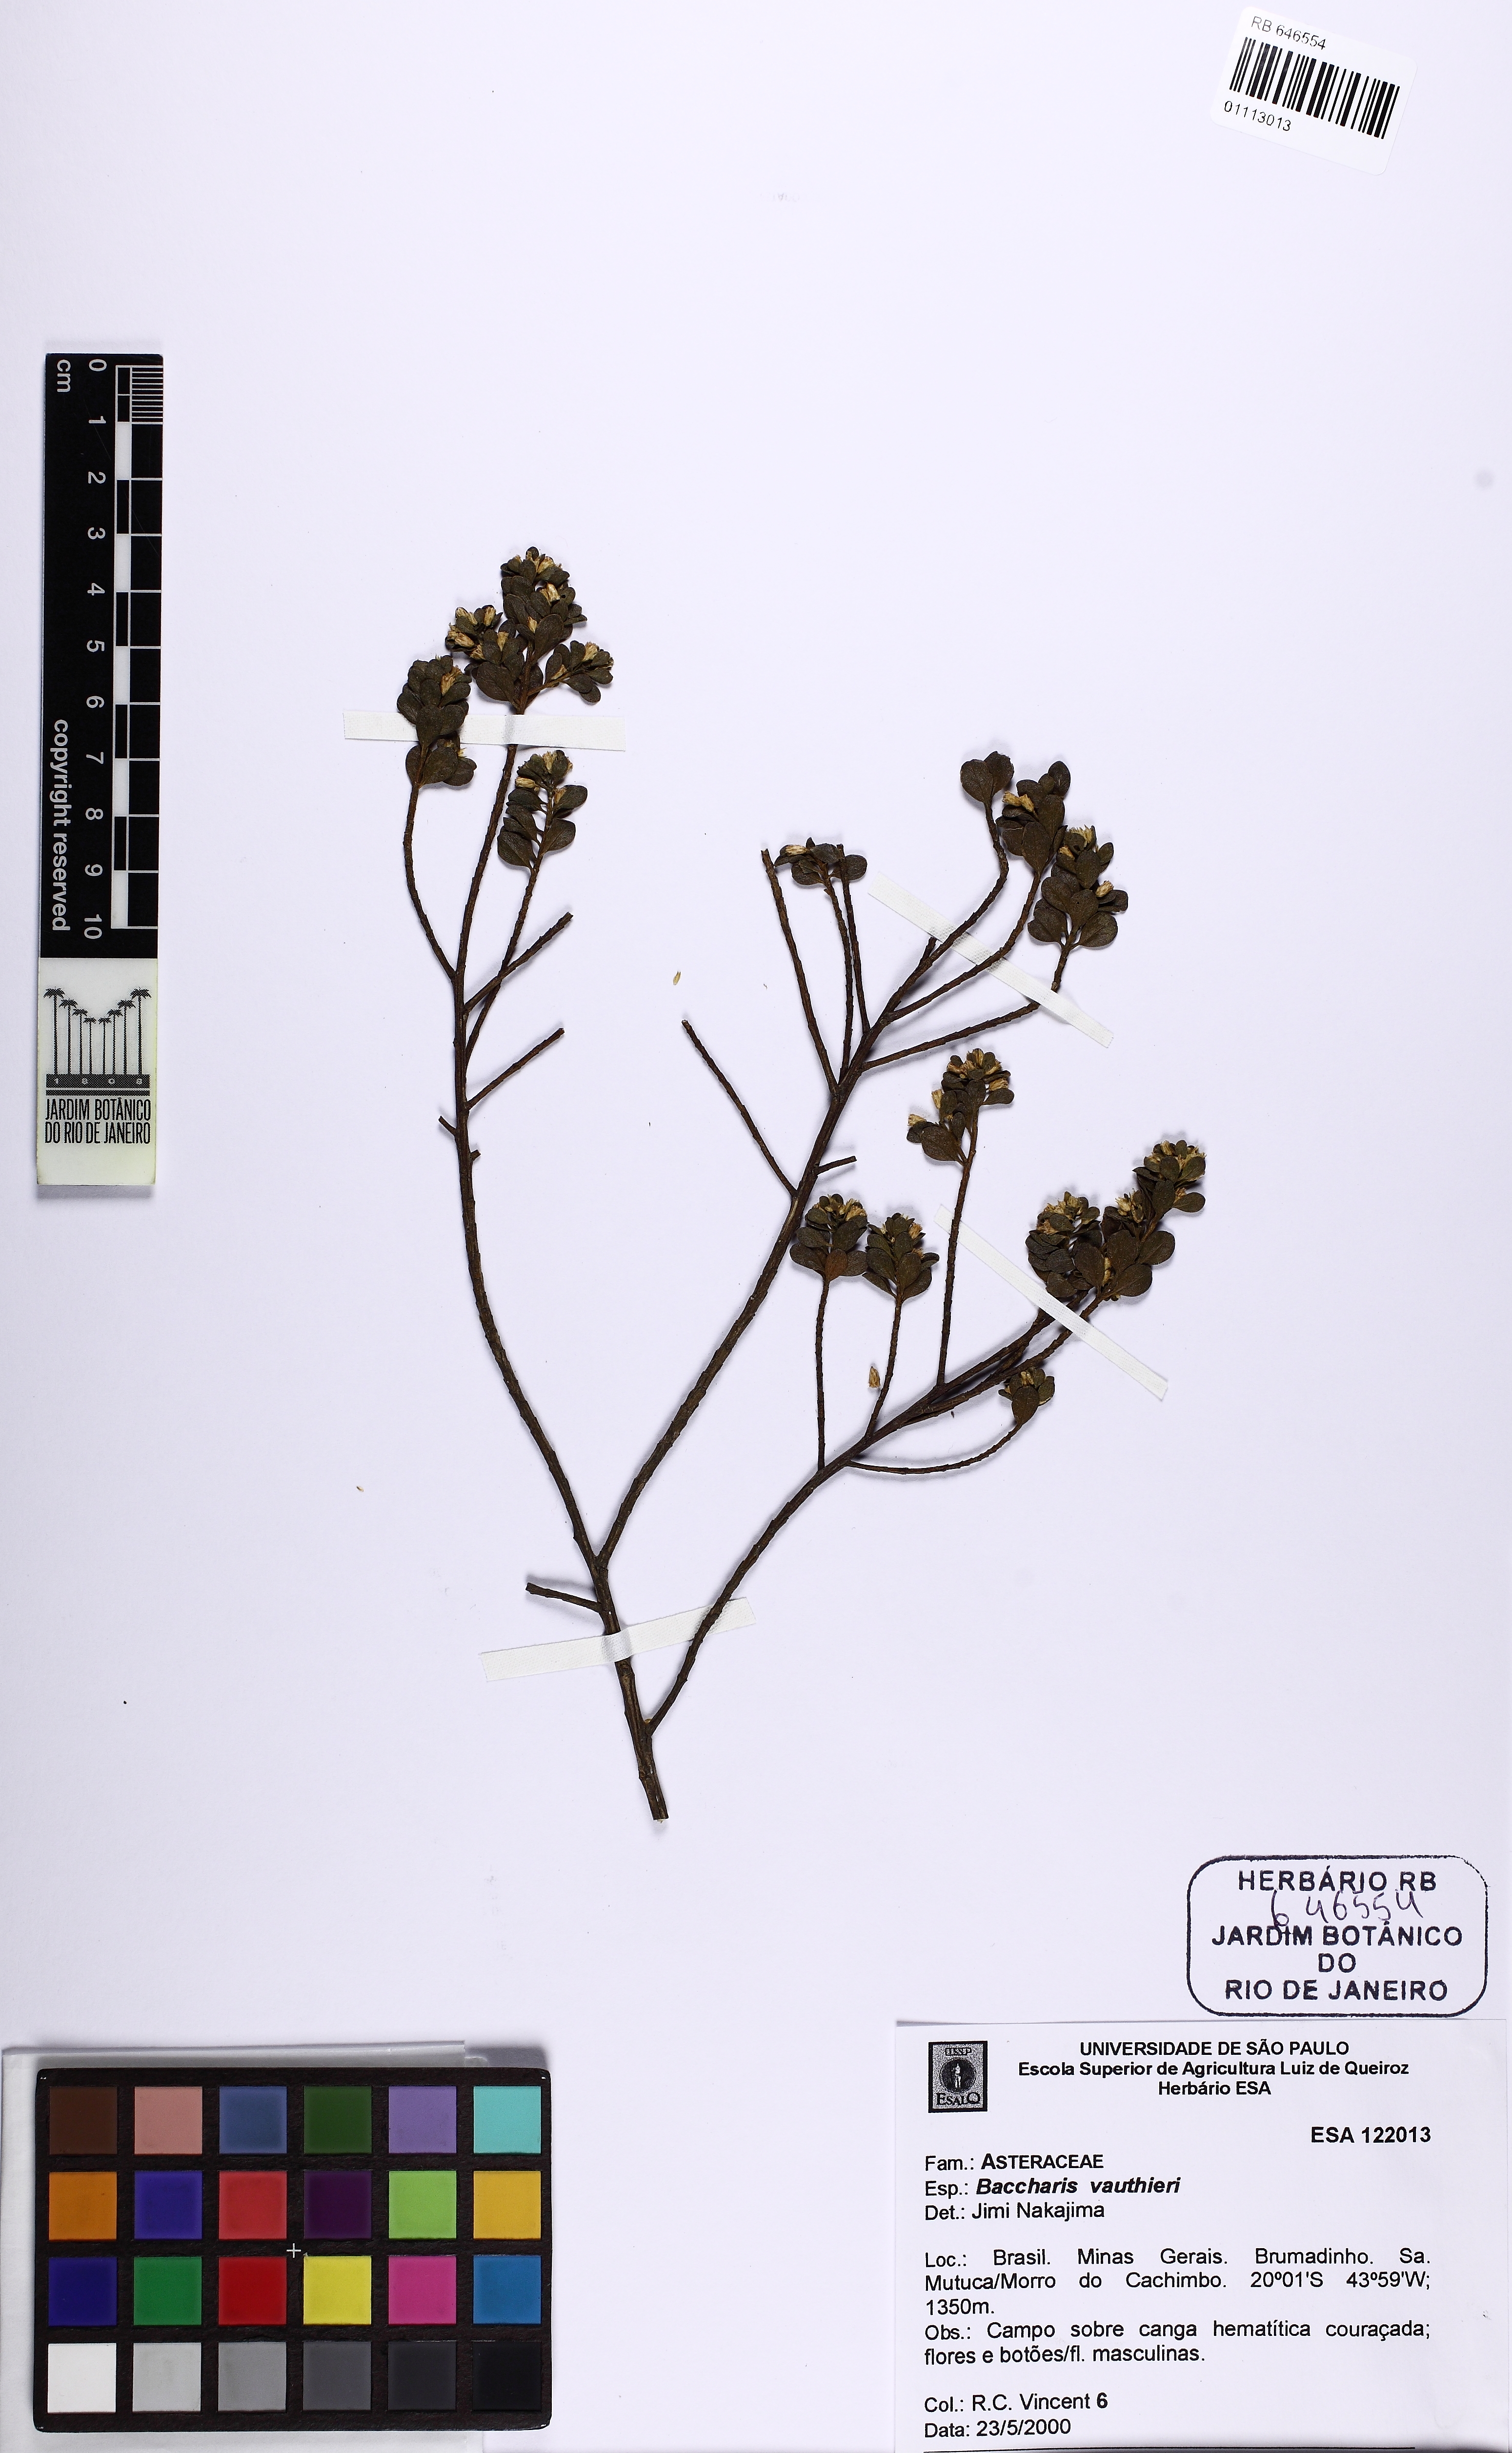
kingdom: Plantae
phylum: Tracheophyta
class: Magnoliopsida
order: Asterales
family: Asteraceae
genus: Baccharis
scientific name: Baccharis reticularia
